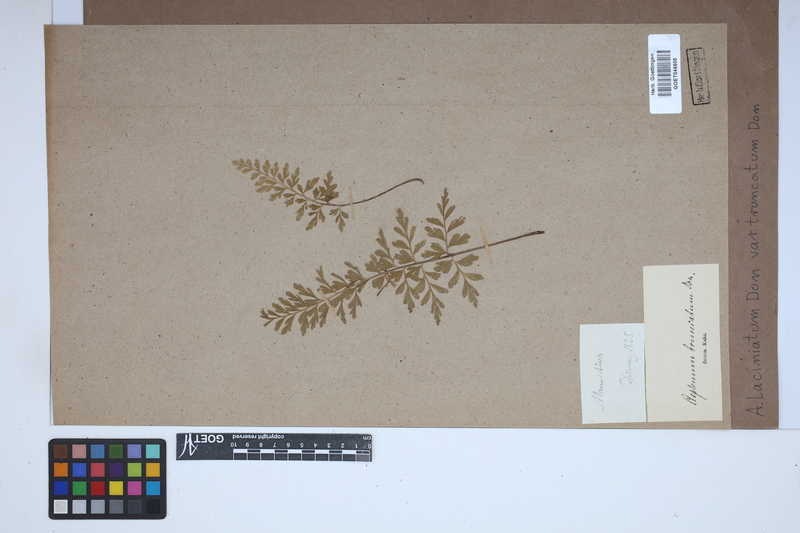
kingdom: Plantae
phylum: Tracheophyta
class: Polypodiopsida
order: Polypodiales
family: Aspleniaceae
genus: Asplenium
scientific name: Asplenium laciniatum
